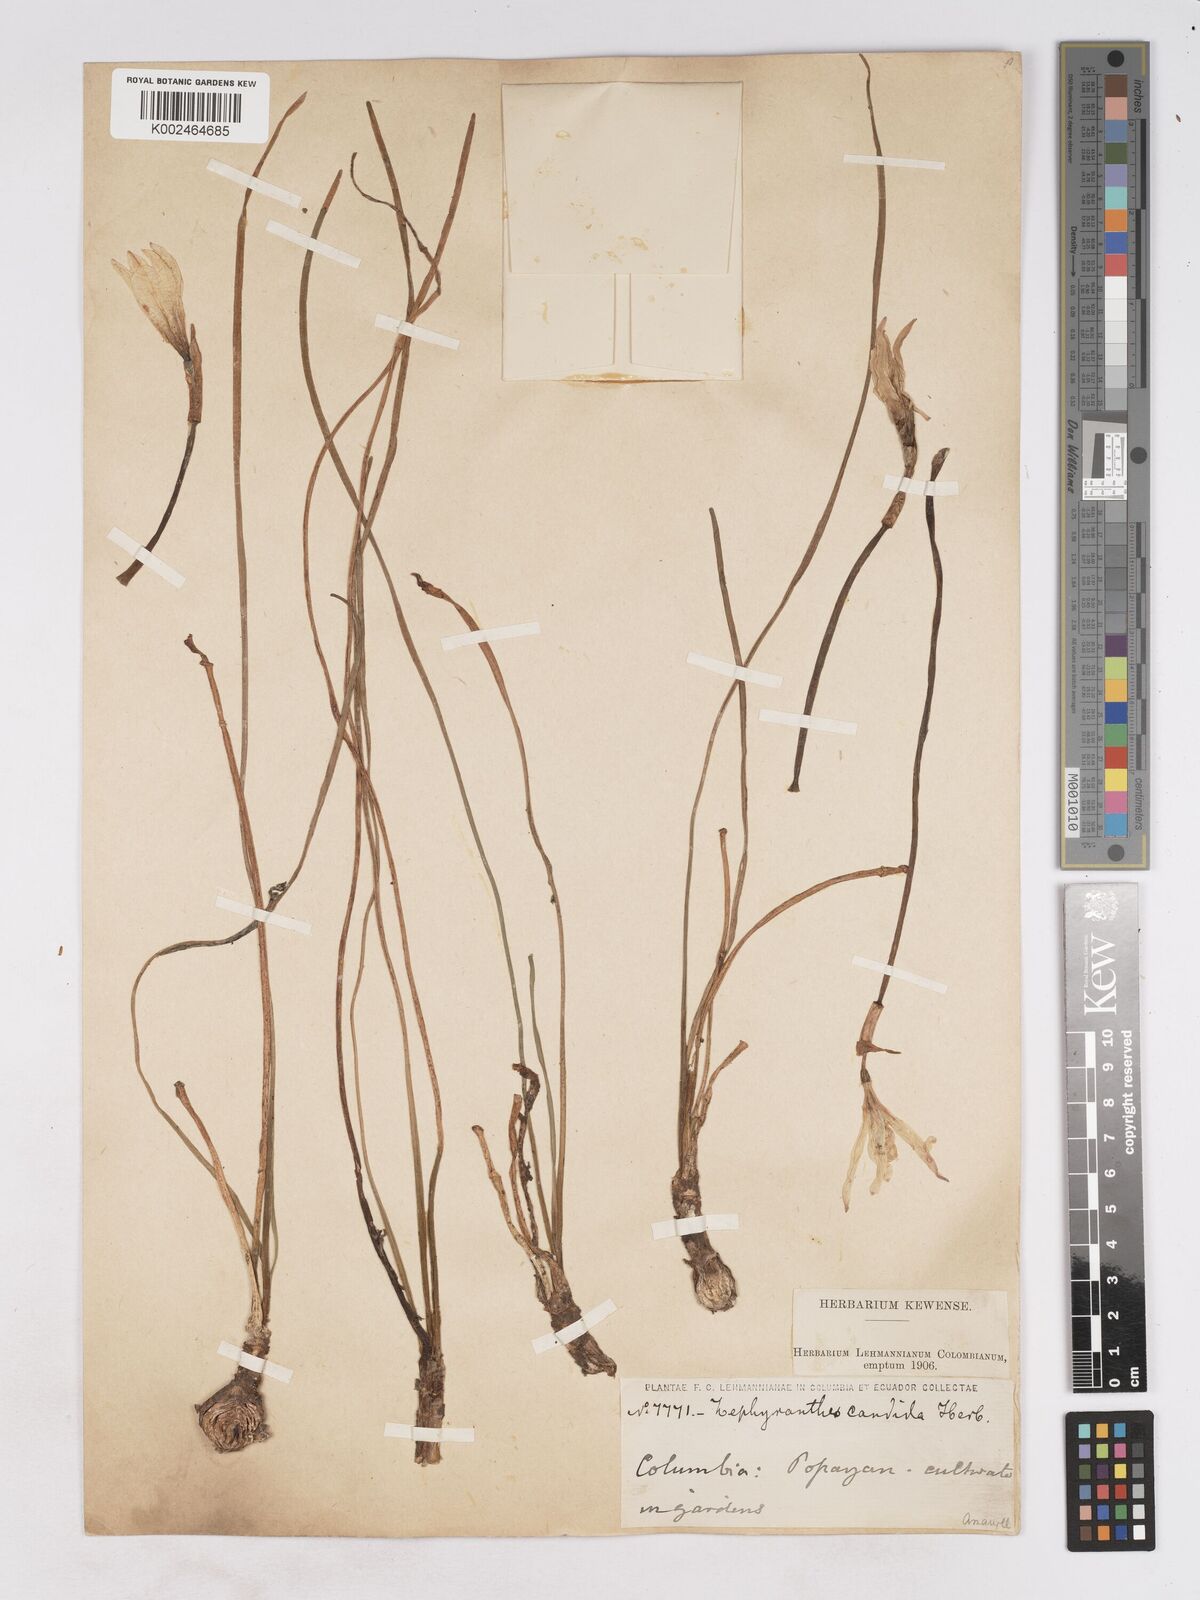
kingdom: Plantae
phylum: Tracheophyta
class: Liliopsida
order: Asparagales
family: Amaryllidaceae
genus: Zephyranthes
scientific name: Zephyranthes candida
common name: Autumn zephyrlily
